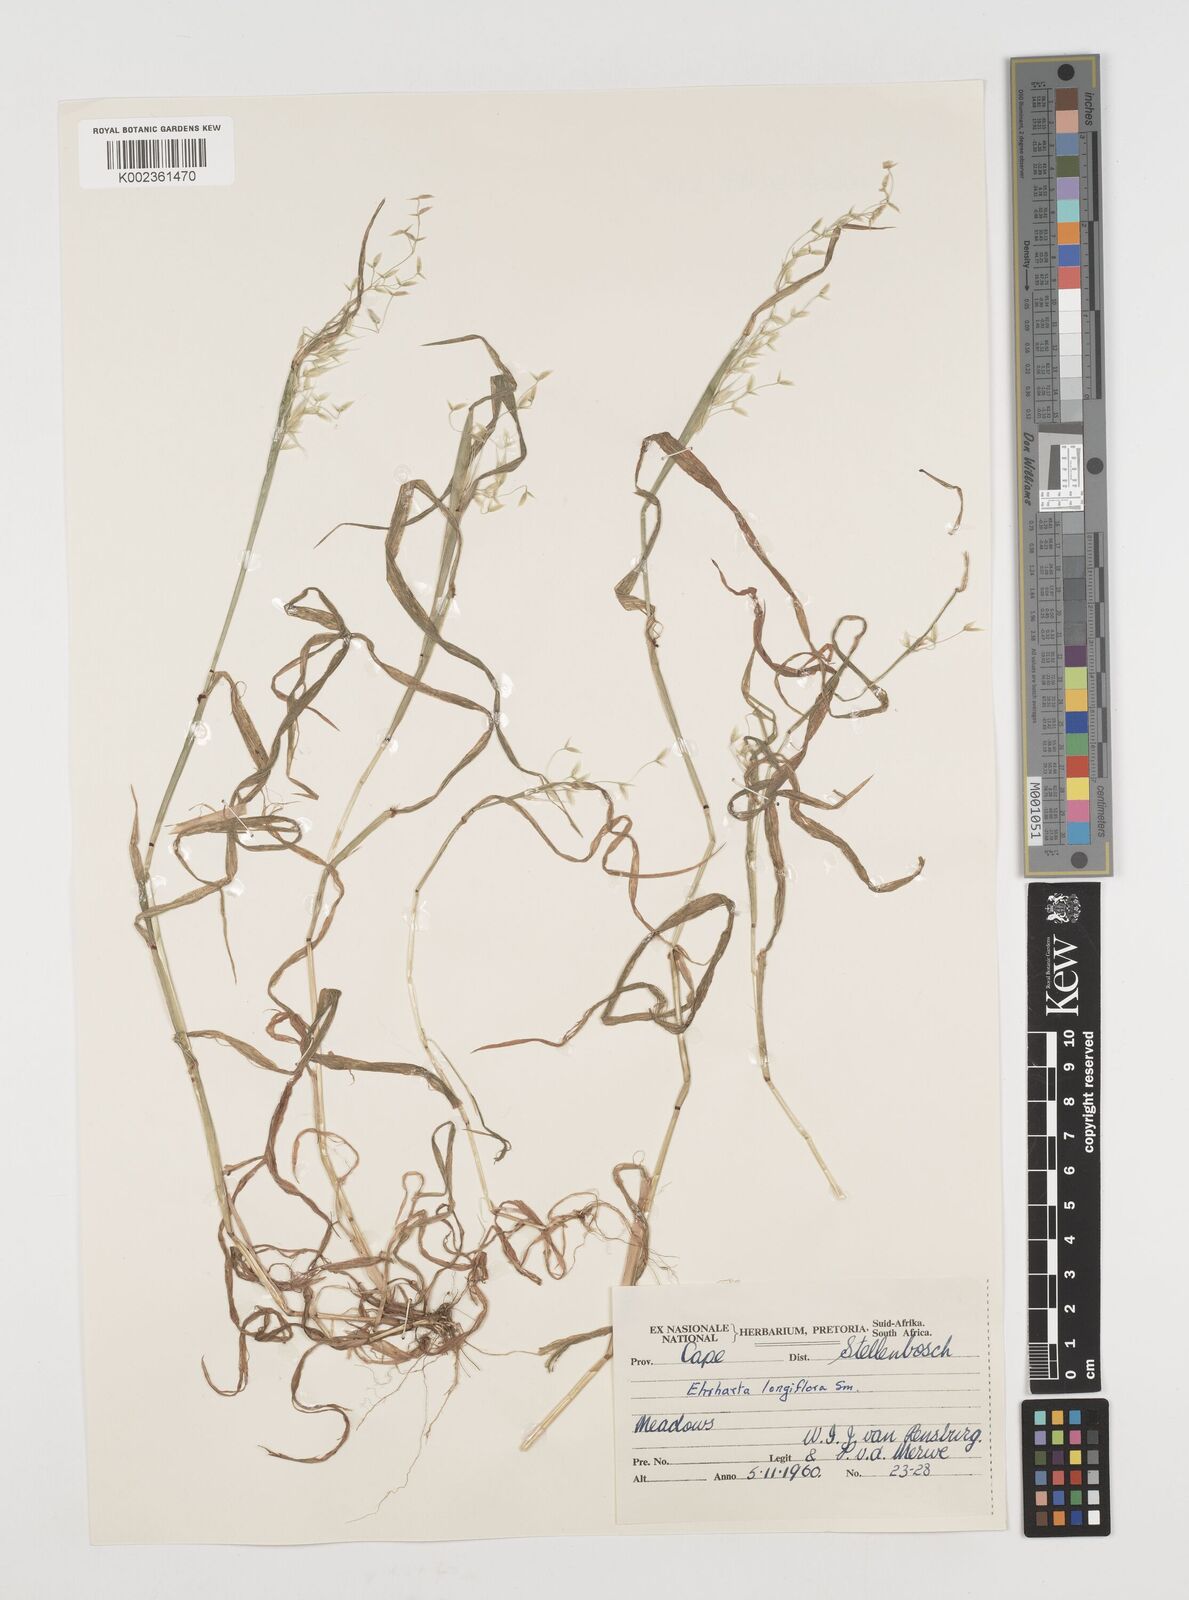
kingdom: Plantae
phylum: Tracheophyta
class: Liliopsida
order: Poales
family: Poaceae
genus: Ehrharta
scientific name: Ehrharta longiflora
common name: Longflowered veldtgrass
